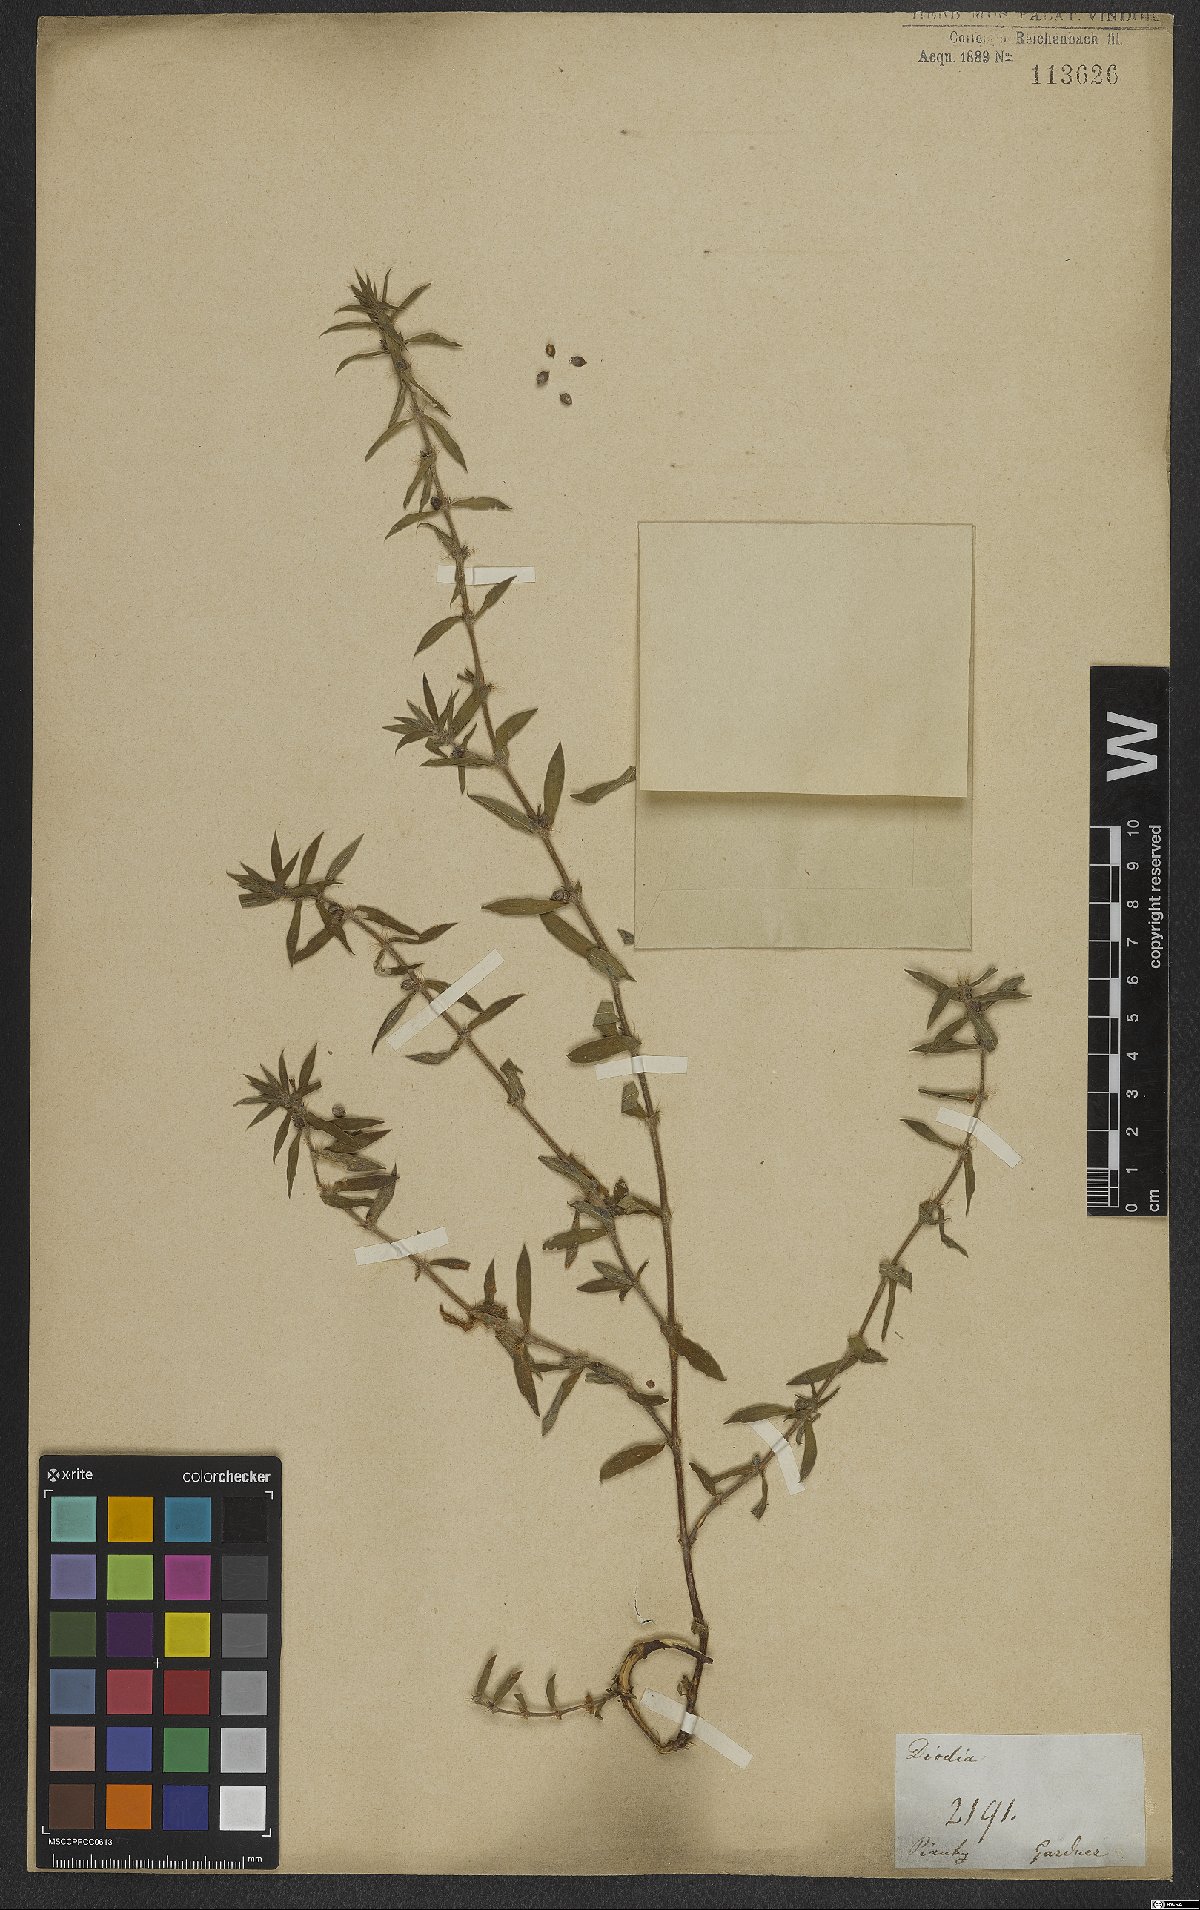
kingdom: Plantae
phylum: Tracheophyta
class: Magnoliopsida
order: Gentianales
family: Rubiaceae
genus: Hexasepalum
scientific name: Hexasepalum rosmarinifolium
